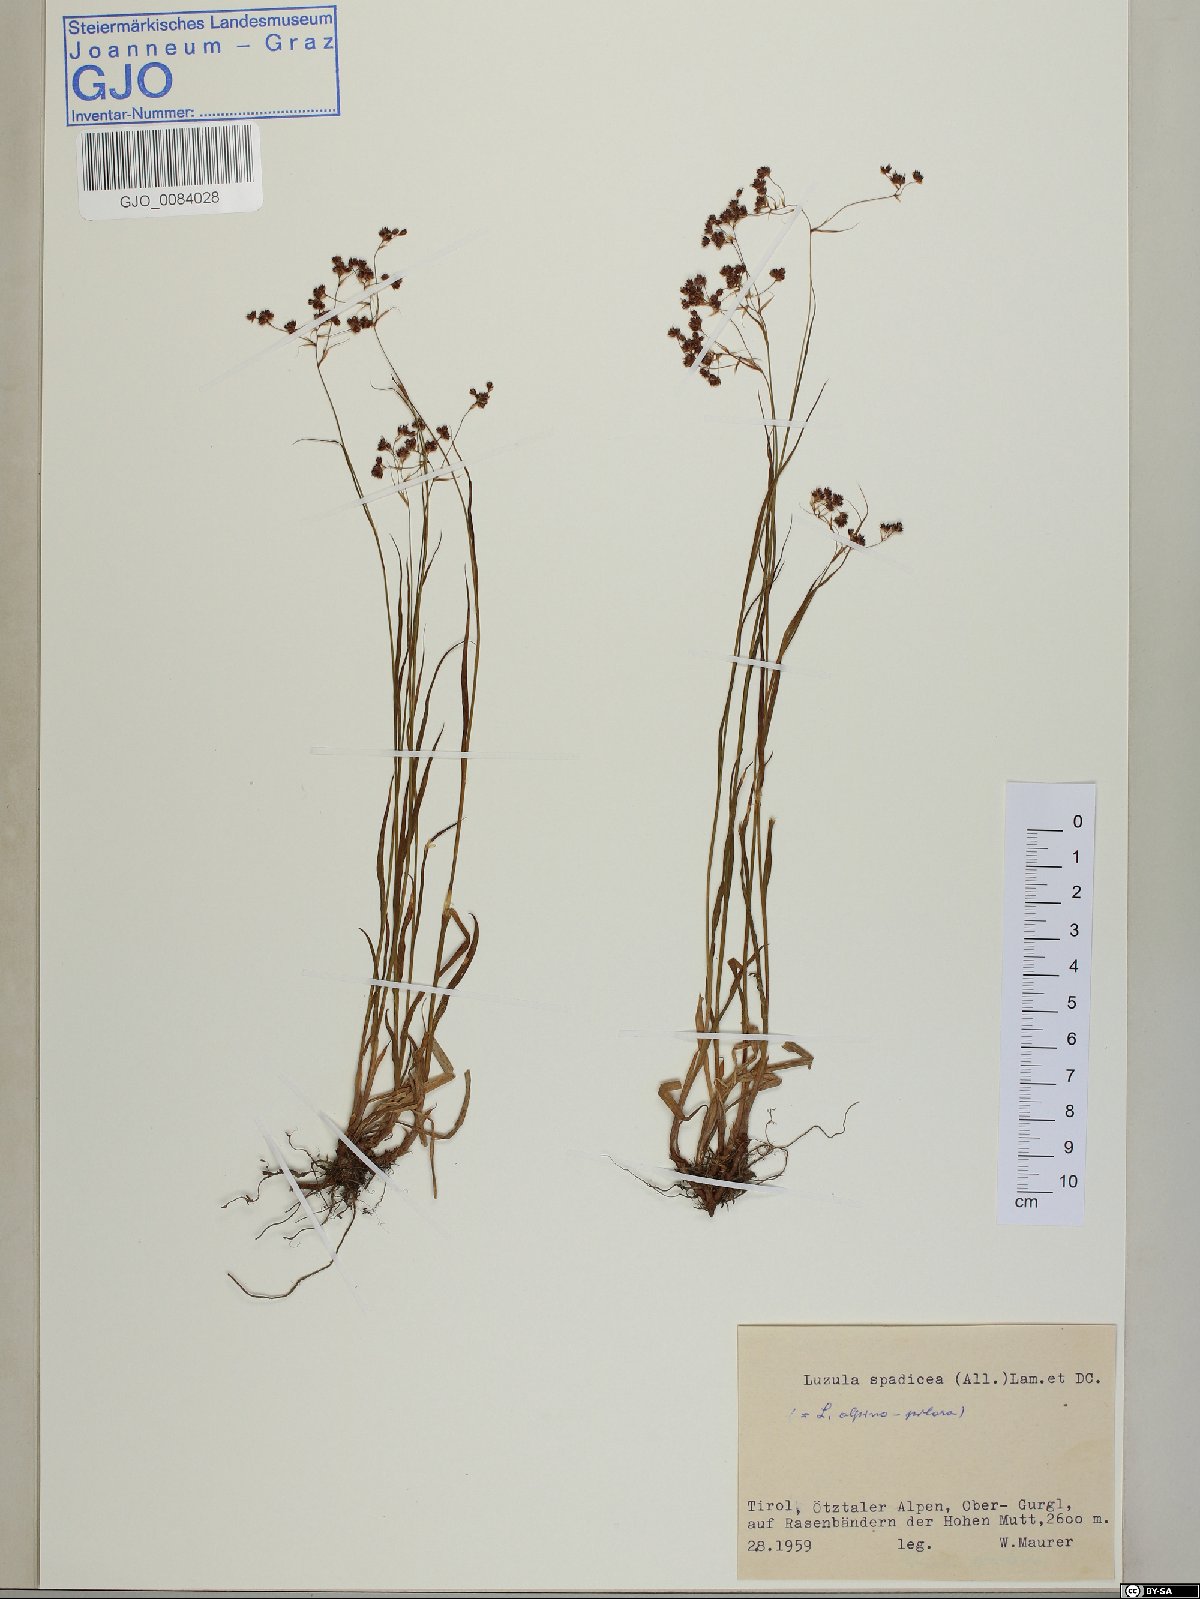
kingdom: Plantae
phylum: Tracheophyta
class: Liliopsida
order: Poales
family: Juncaceae
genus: Luzula
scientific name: Luzula alpinopilosa
